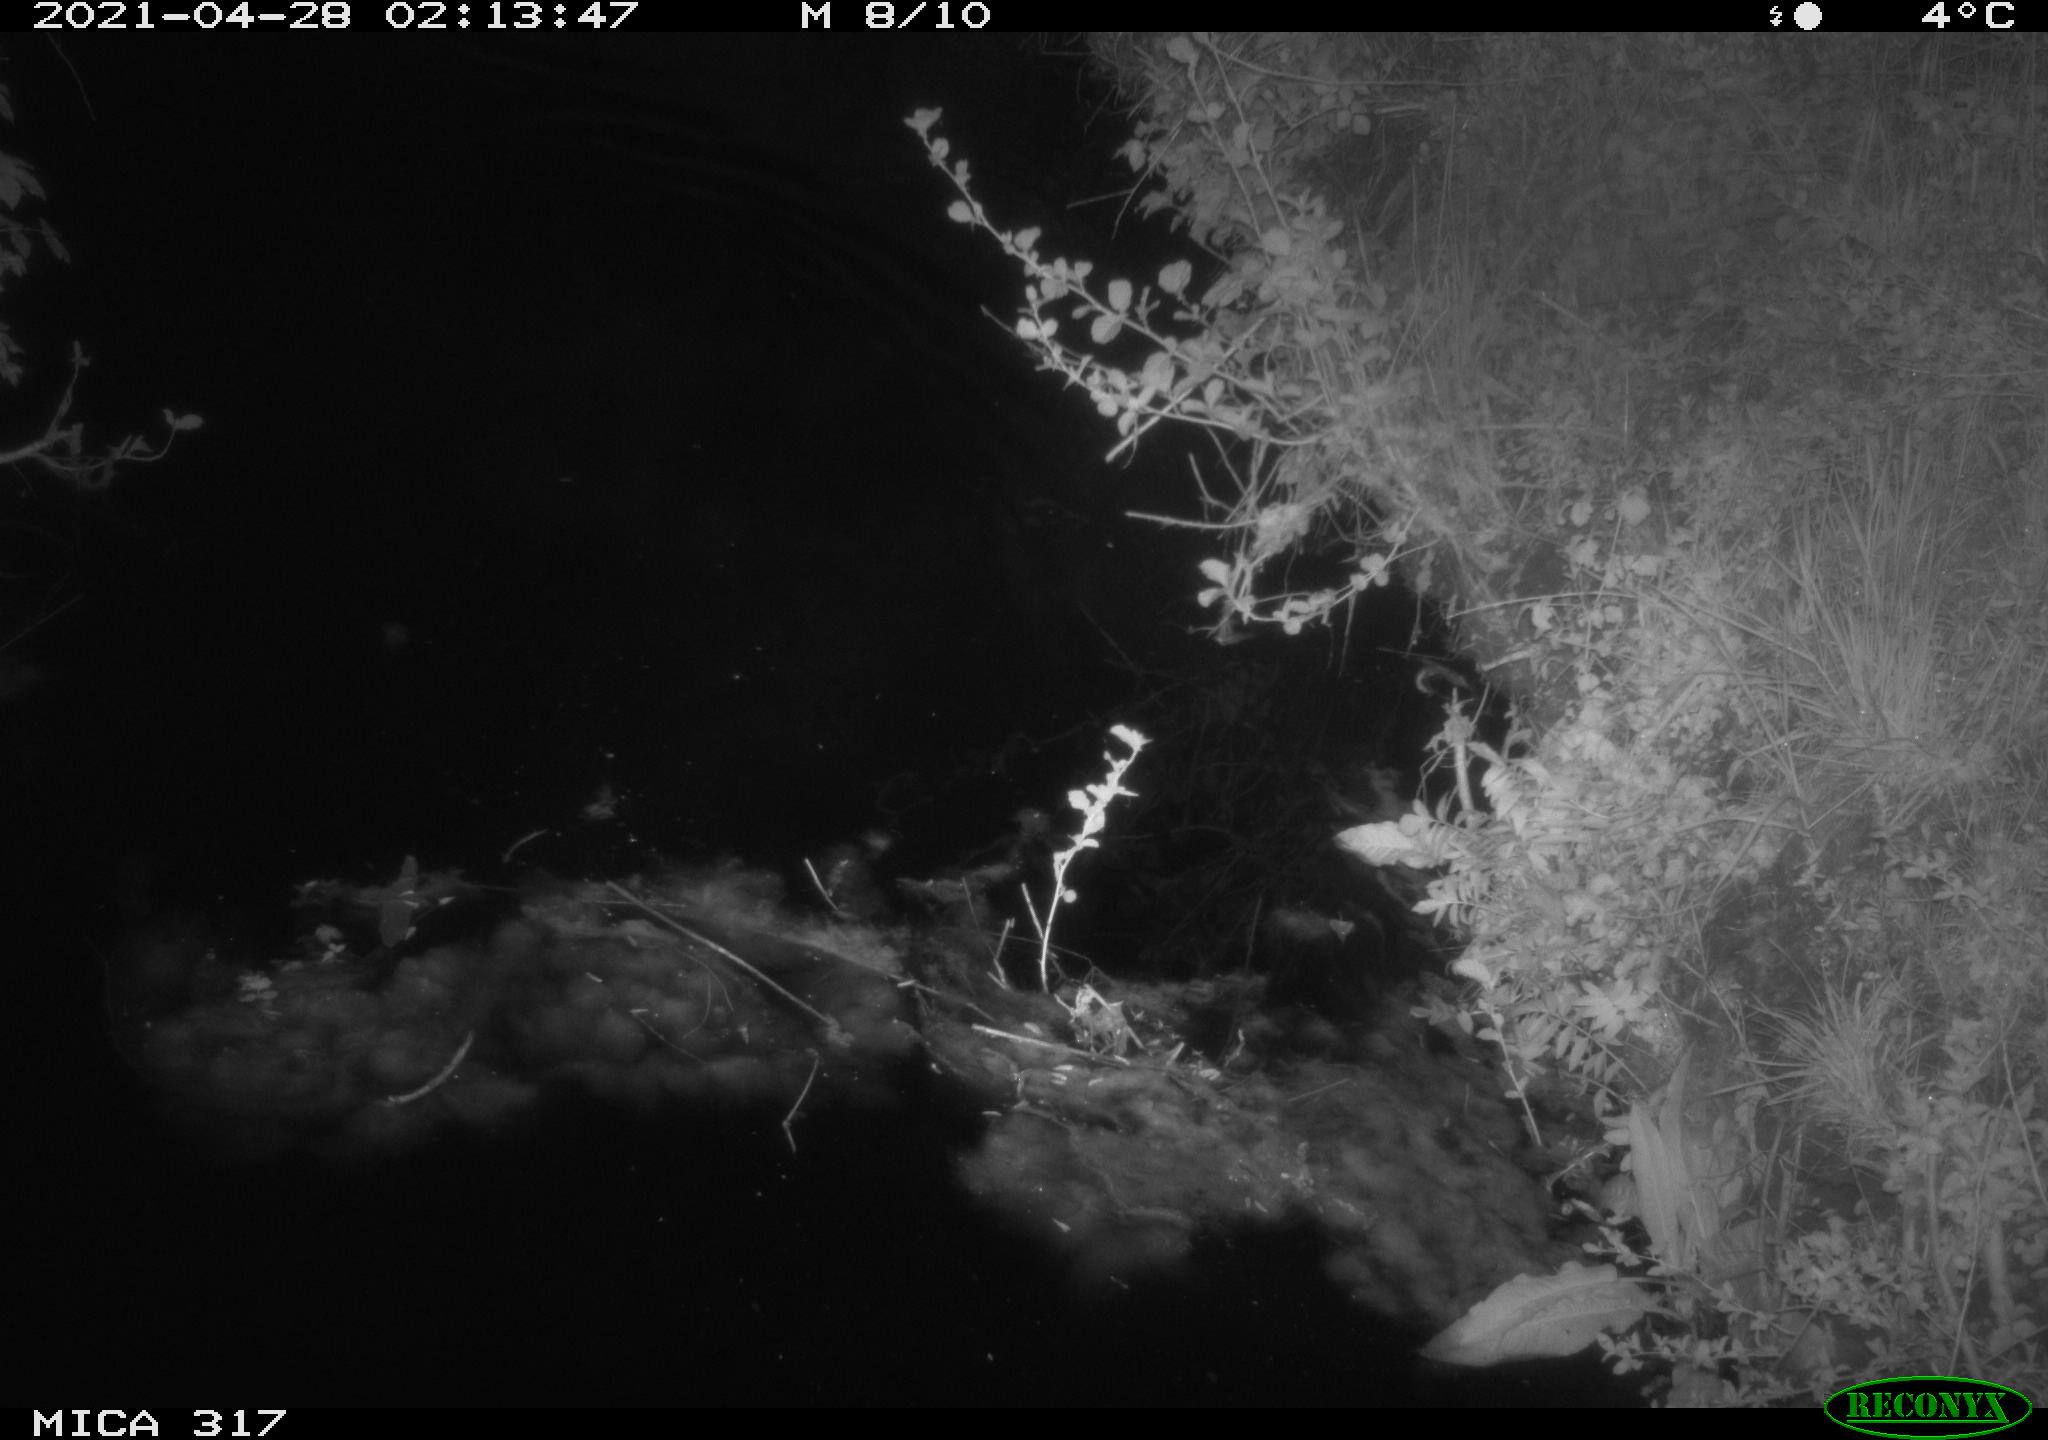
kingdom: Animalia
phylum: Chordata
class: Aves
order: Anseriformes
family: Anatidae
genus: Anas
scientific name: Anas
